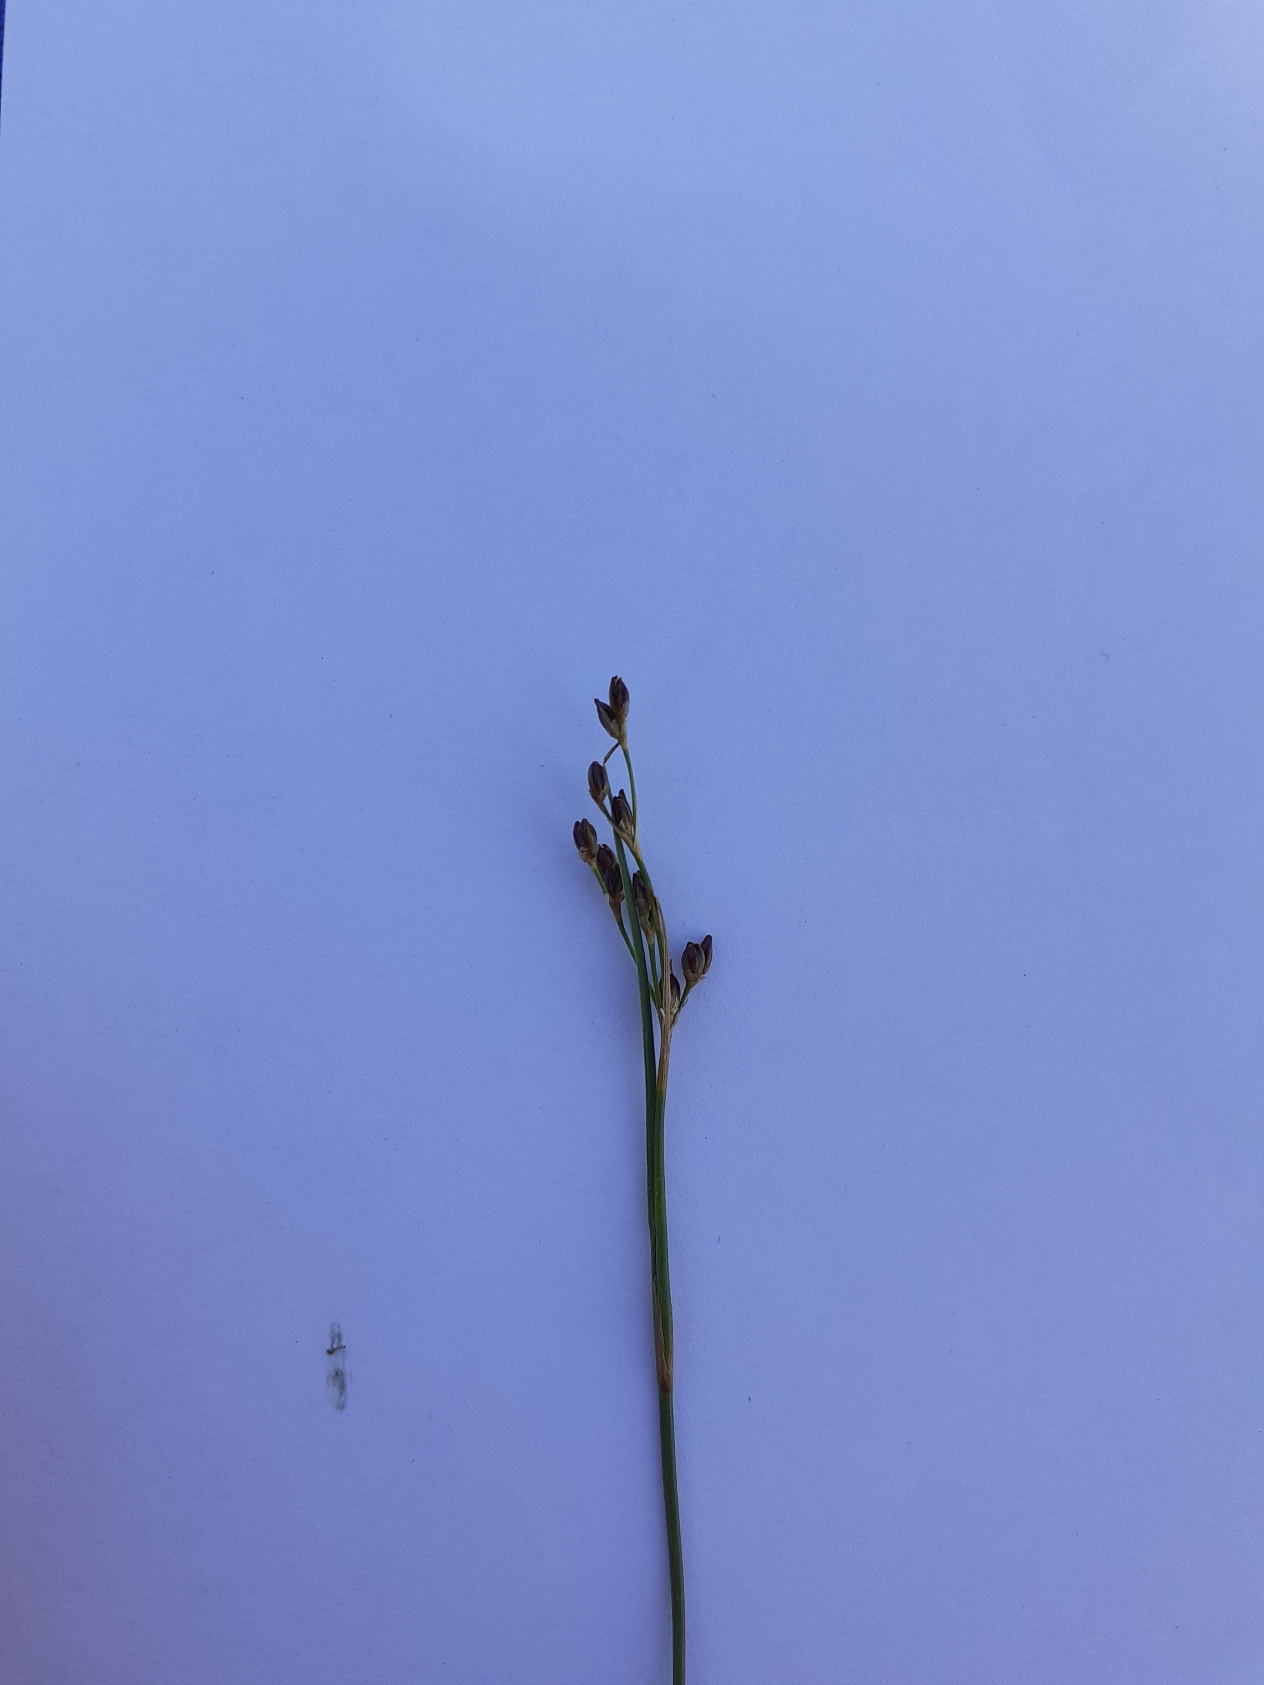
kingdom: Plantae
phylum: Tracheophyta
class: Liliopsida
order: Poales
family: Juncaceae
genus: Juncus
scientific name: Juncus gerardi
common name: Harril
